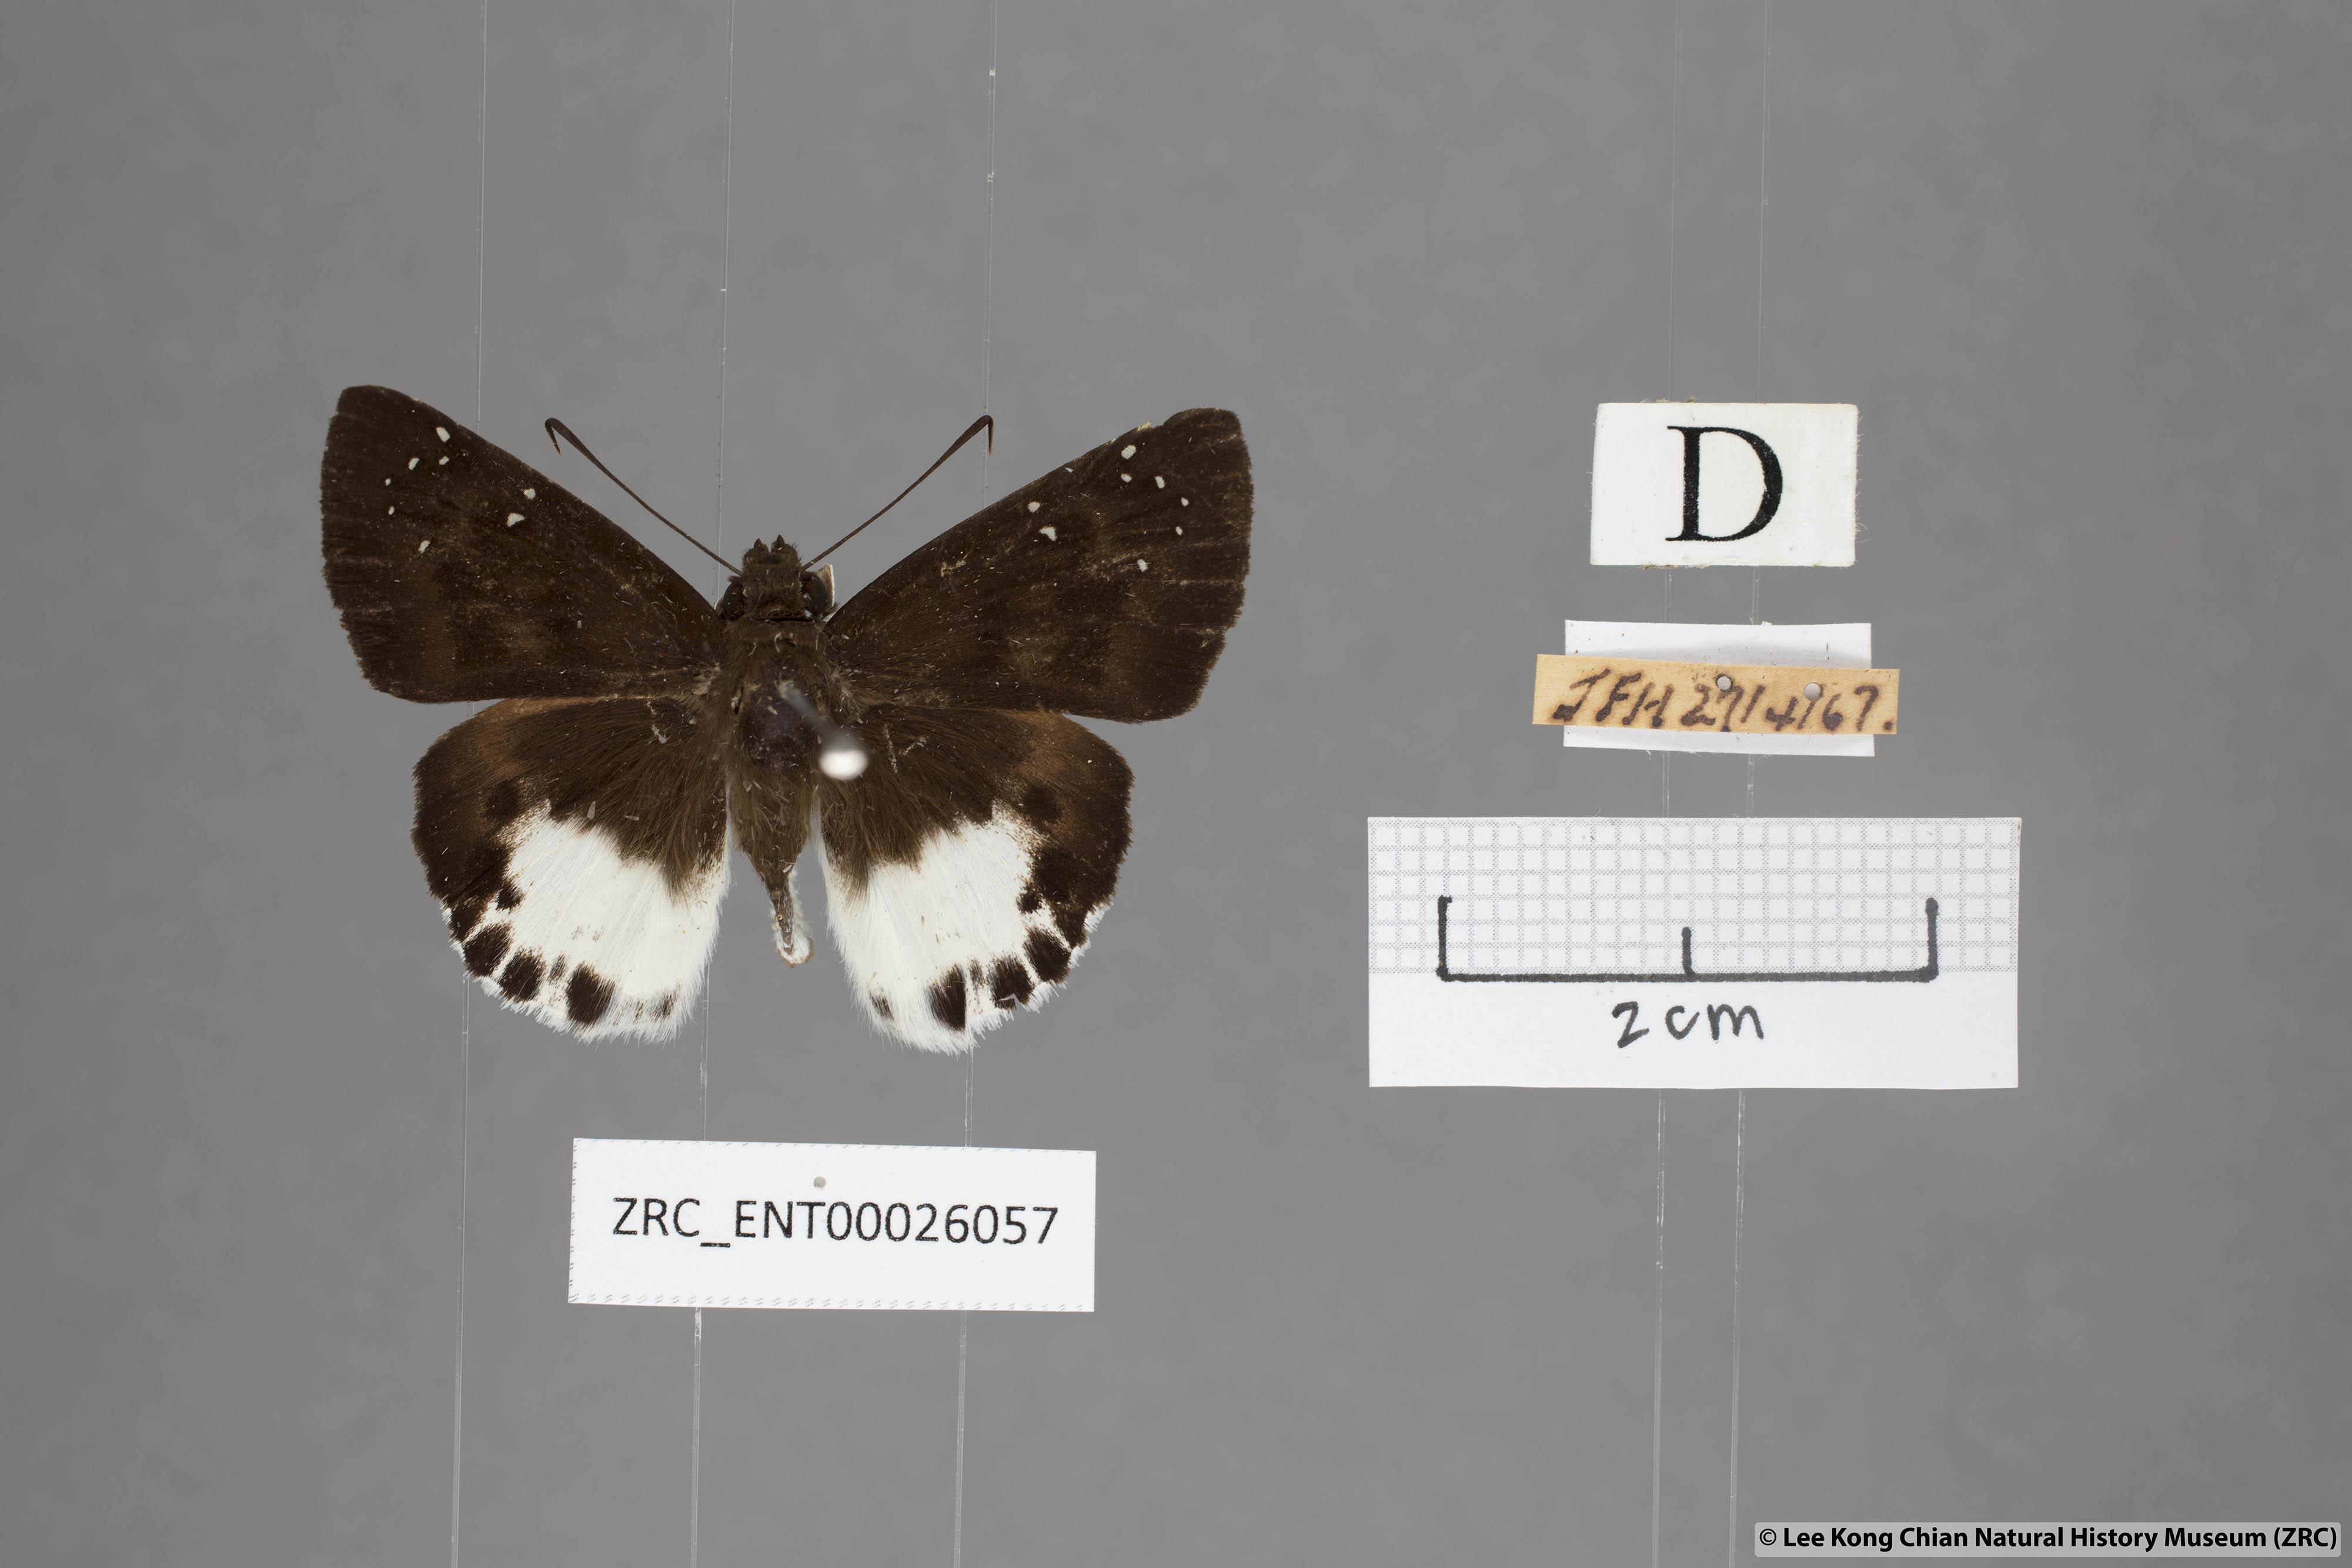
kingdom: Animalia
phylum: Arthropoda
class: Insecta
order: Lepidoptera
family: Hesperiidae
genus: Tagiades
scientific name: Tagiades litigiosa
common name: Water snow flat
